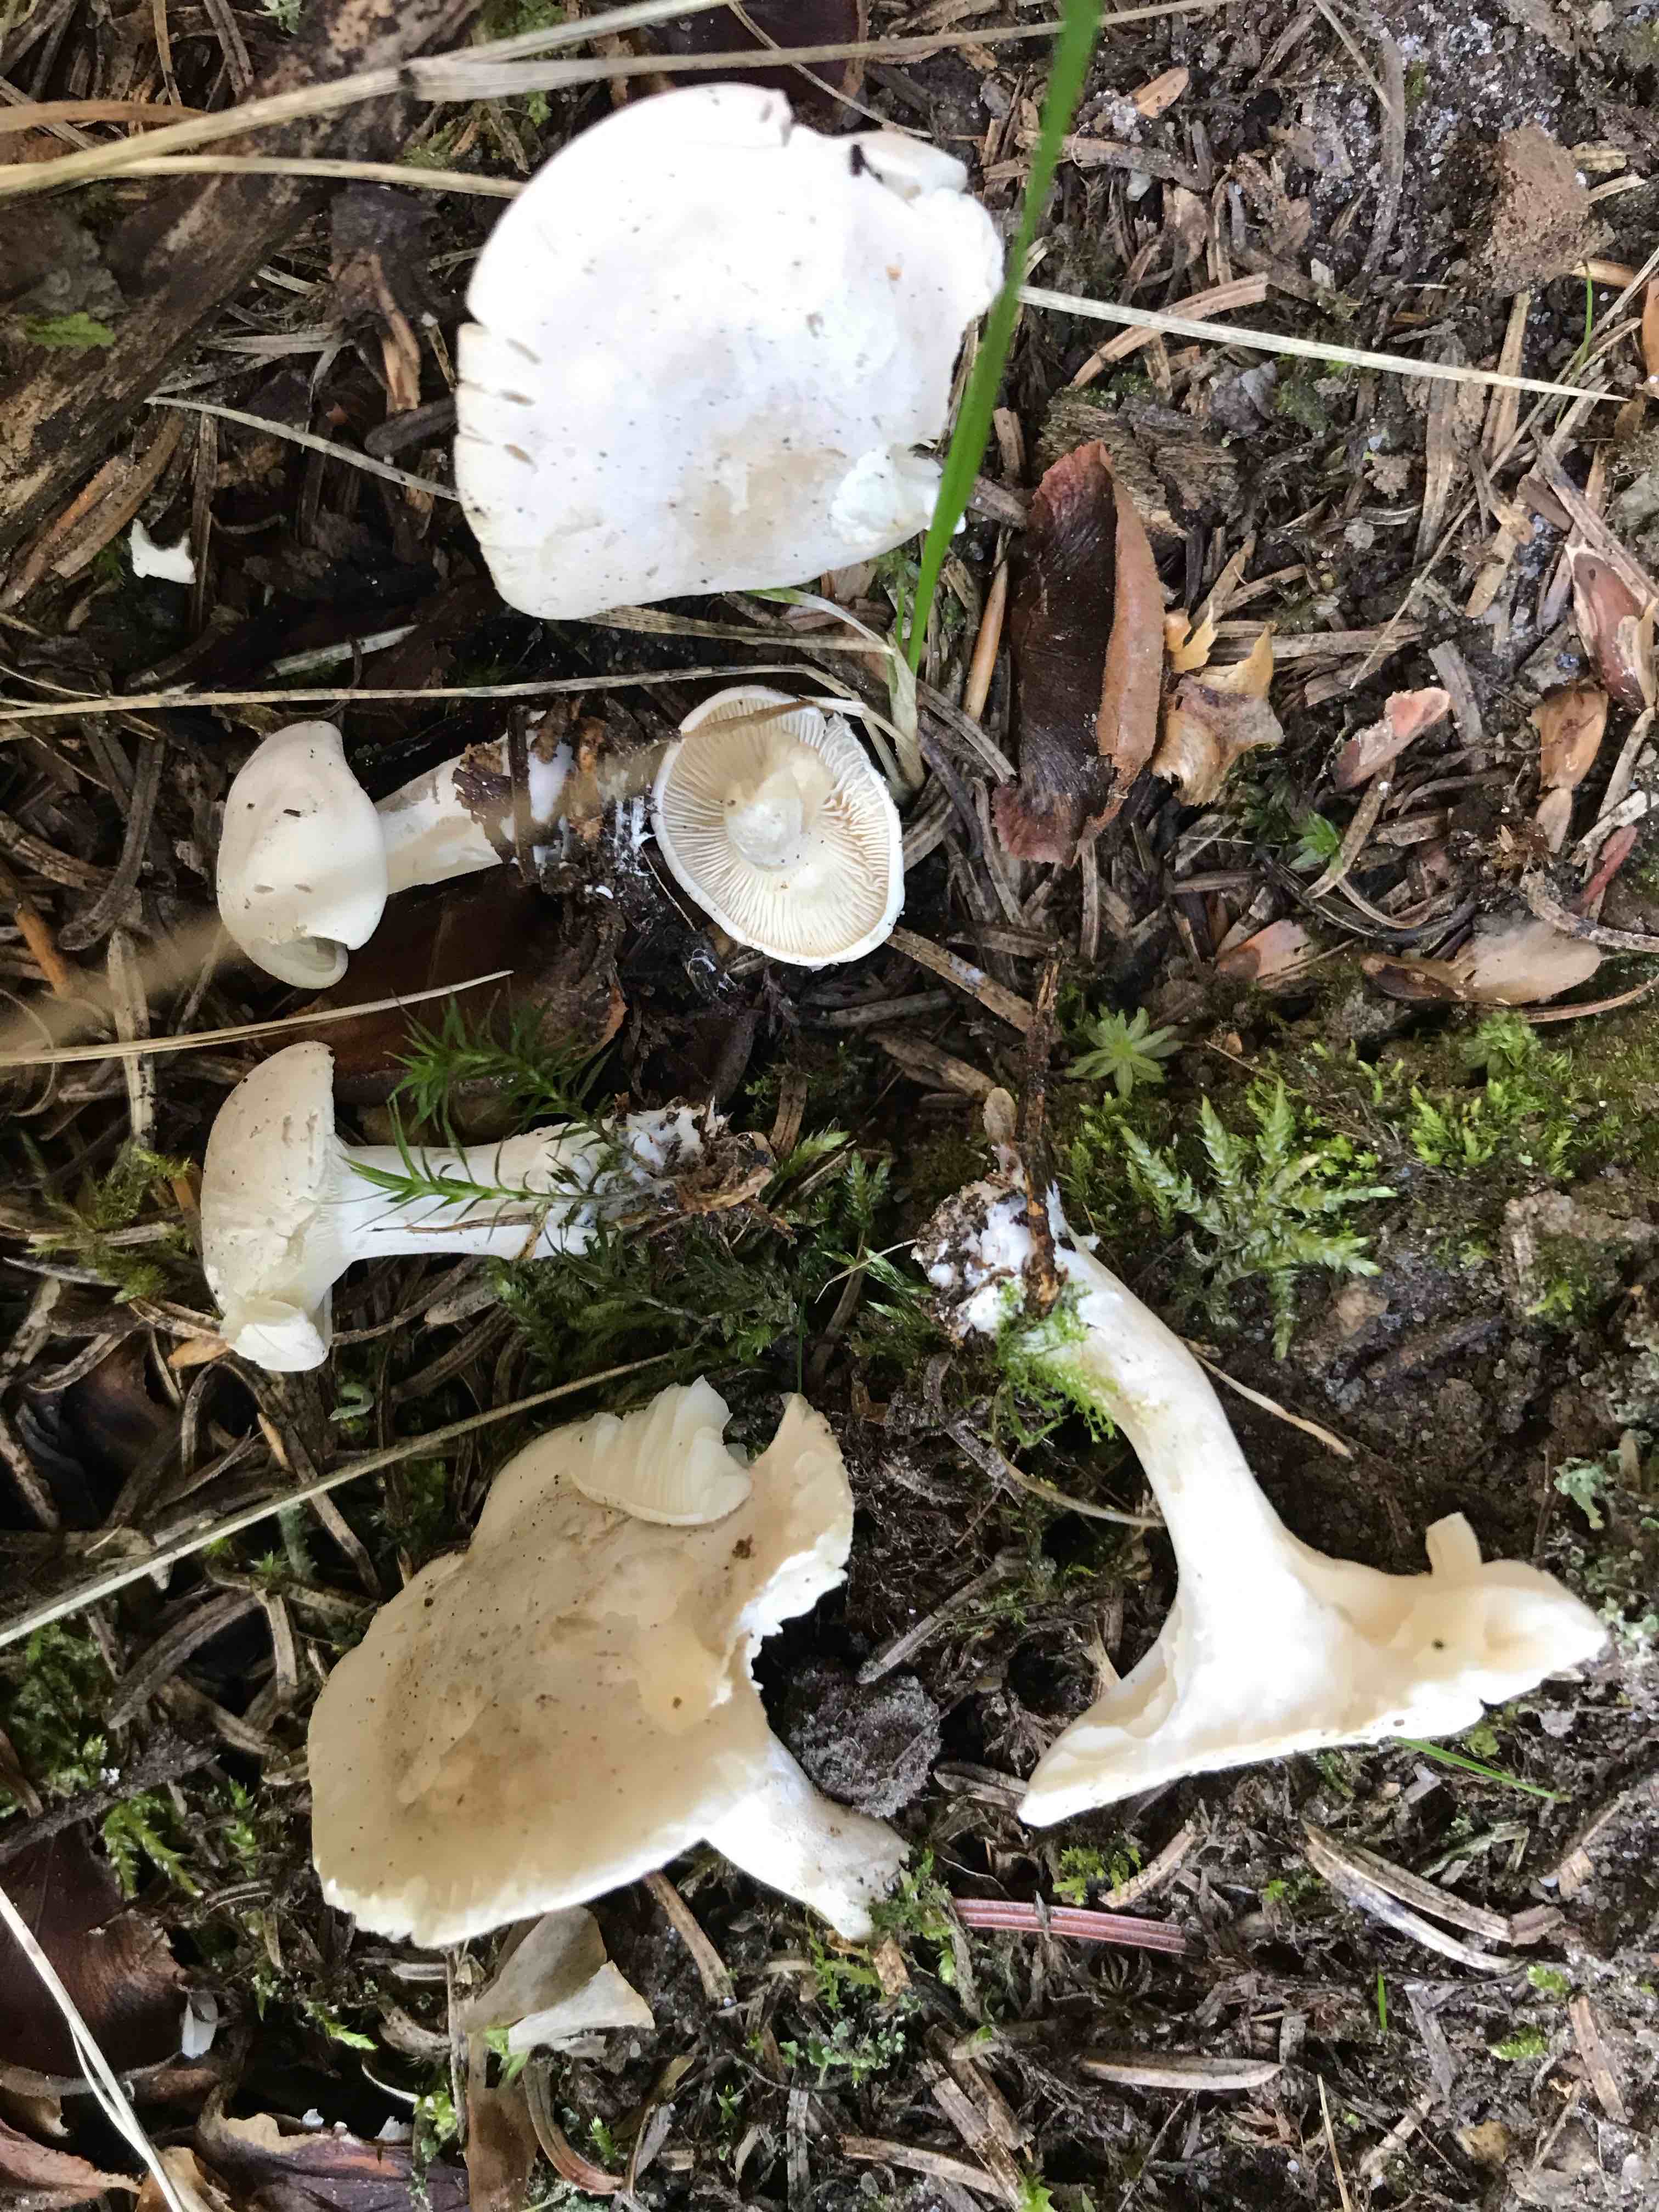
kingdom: Fungi
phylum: Basidiomycota
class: Agaricomycetes
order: Agaricales
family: Entolomataceae
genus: Clitopilus
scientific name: Clitopilus prunulus
